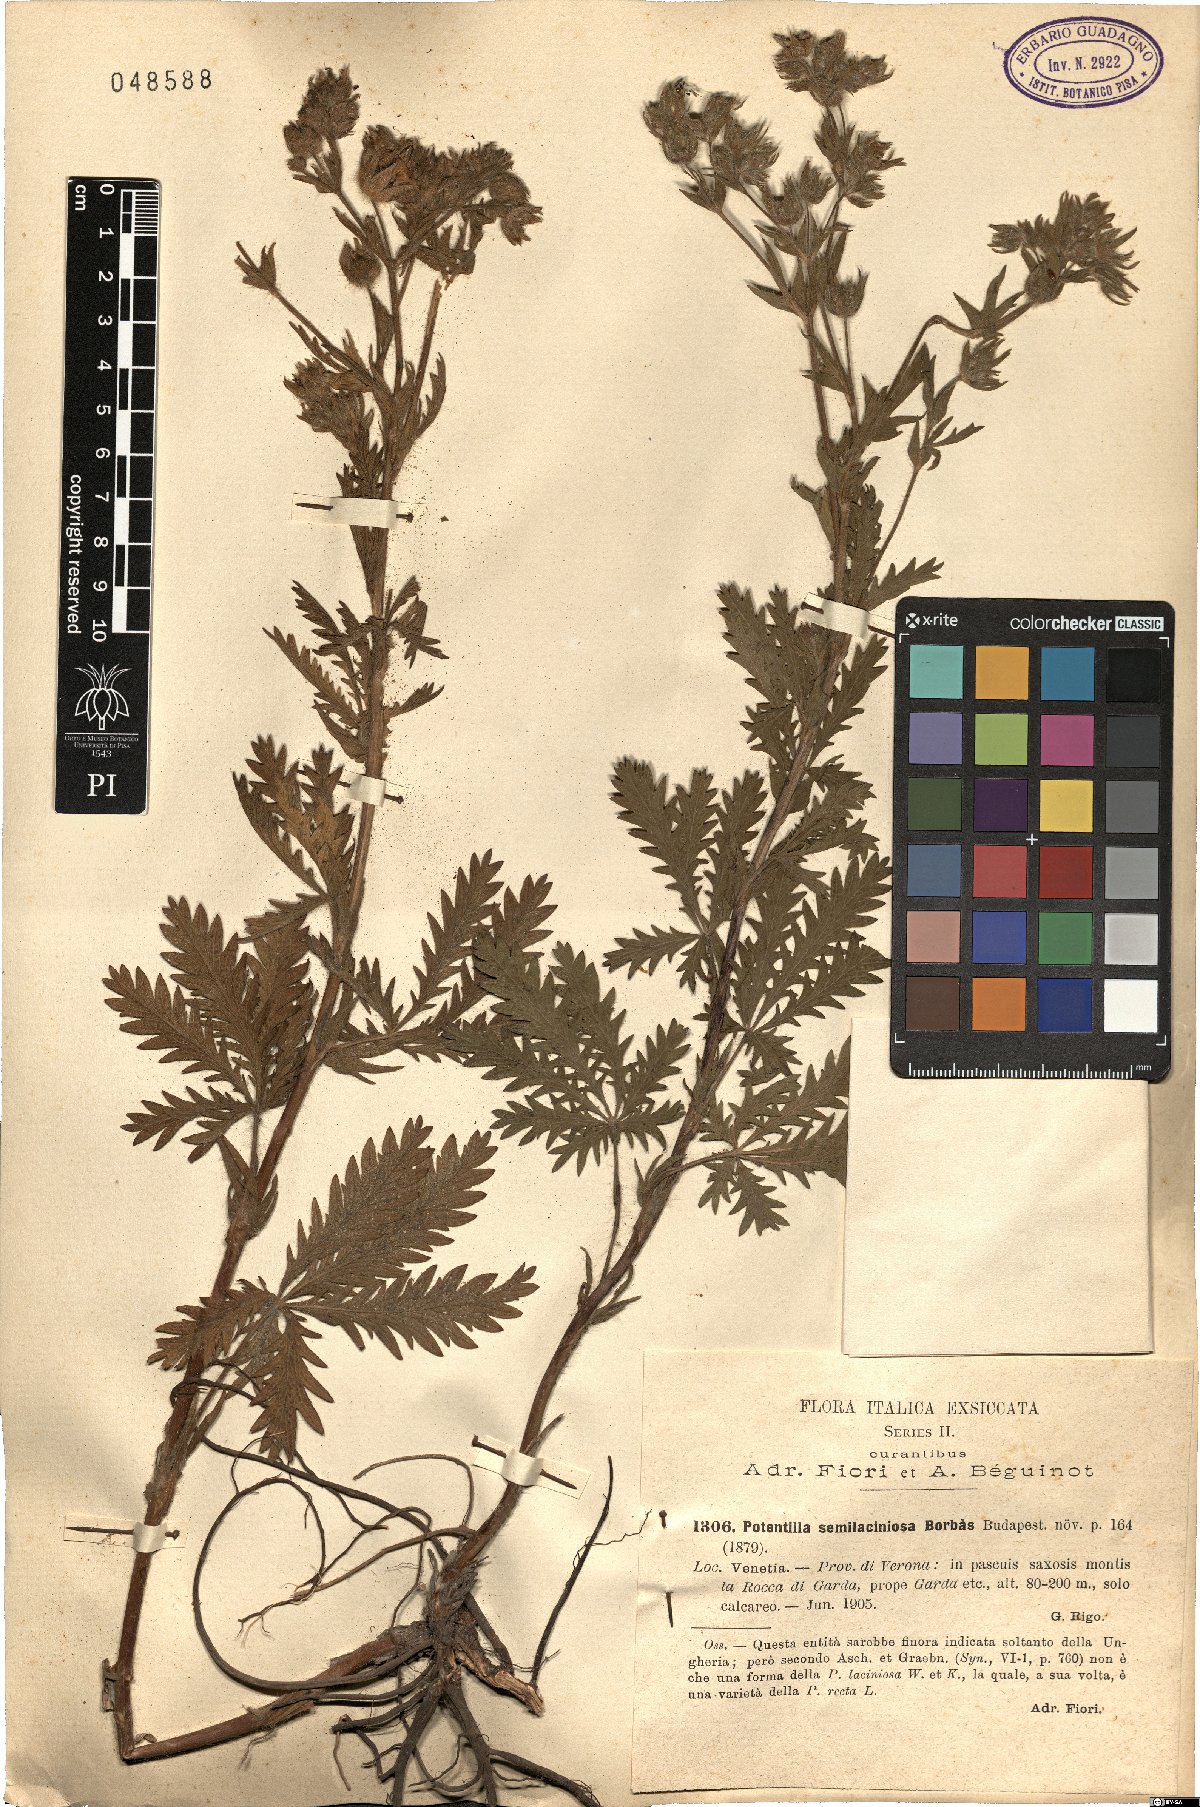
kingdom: Plantae
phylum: Tracheophyta
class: Magnoliopsida
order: Rosales
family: Rosaceae
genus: Potentilla
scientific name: Potentilla recta
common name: Sulphur cinquefoil
